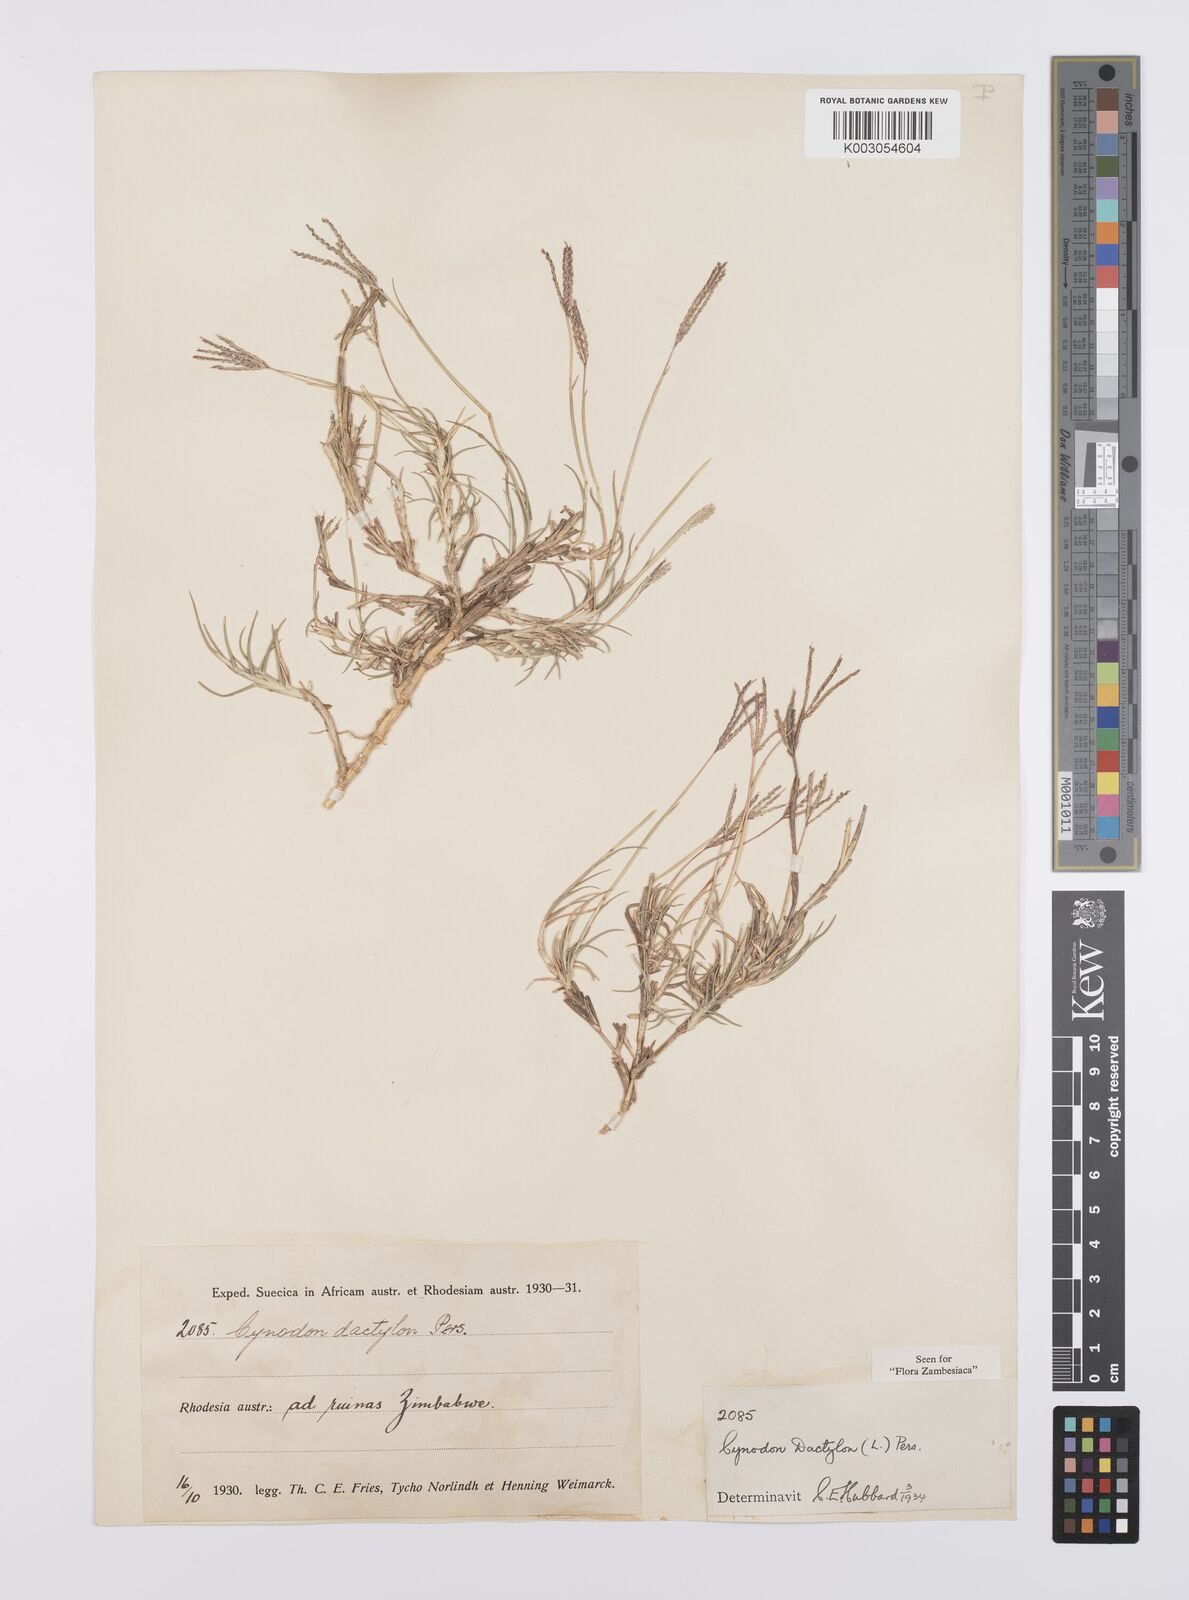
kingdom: Plantae
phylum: Tracheophyta
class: Liliopsida
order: Poales
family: Poaceae
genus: Cynodon
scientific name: Cynodon dactylon
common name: Bermuda grass
